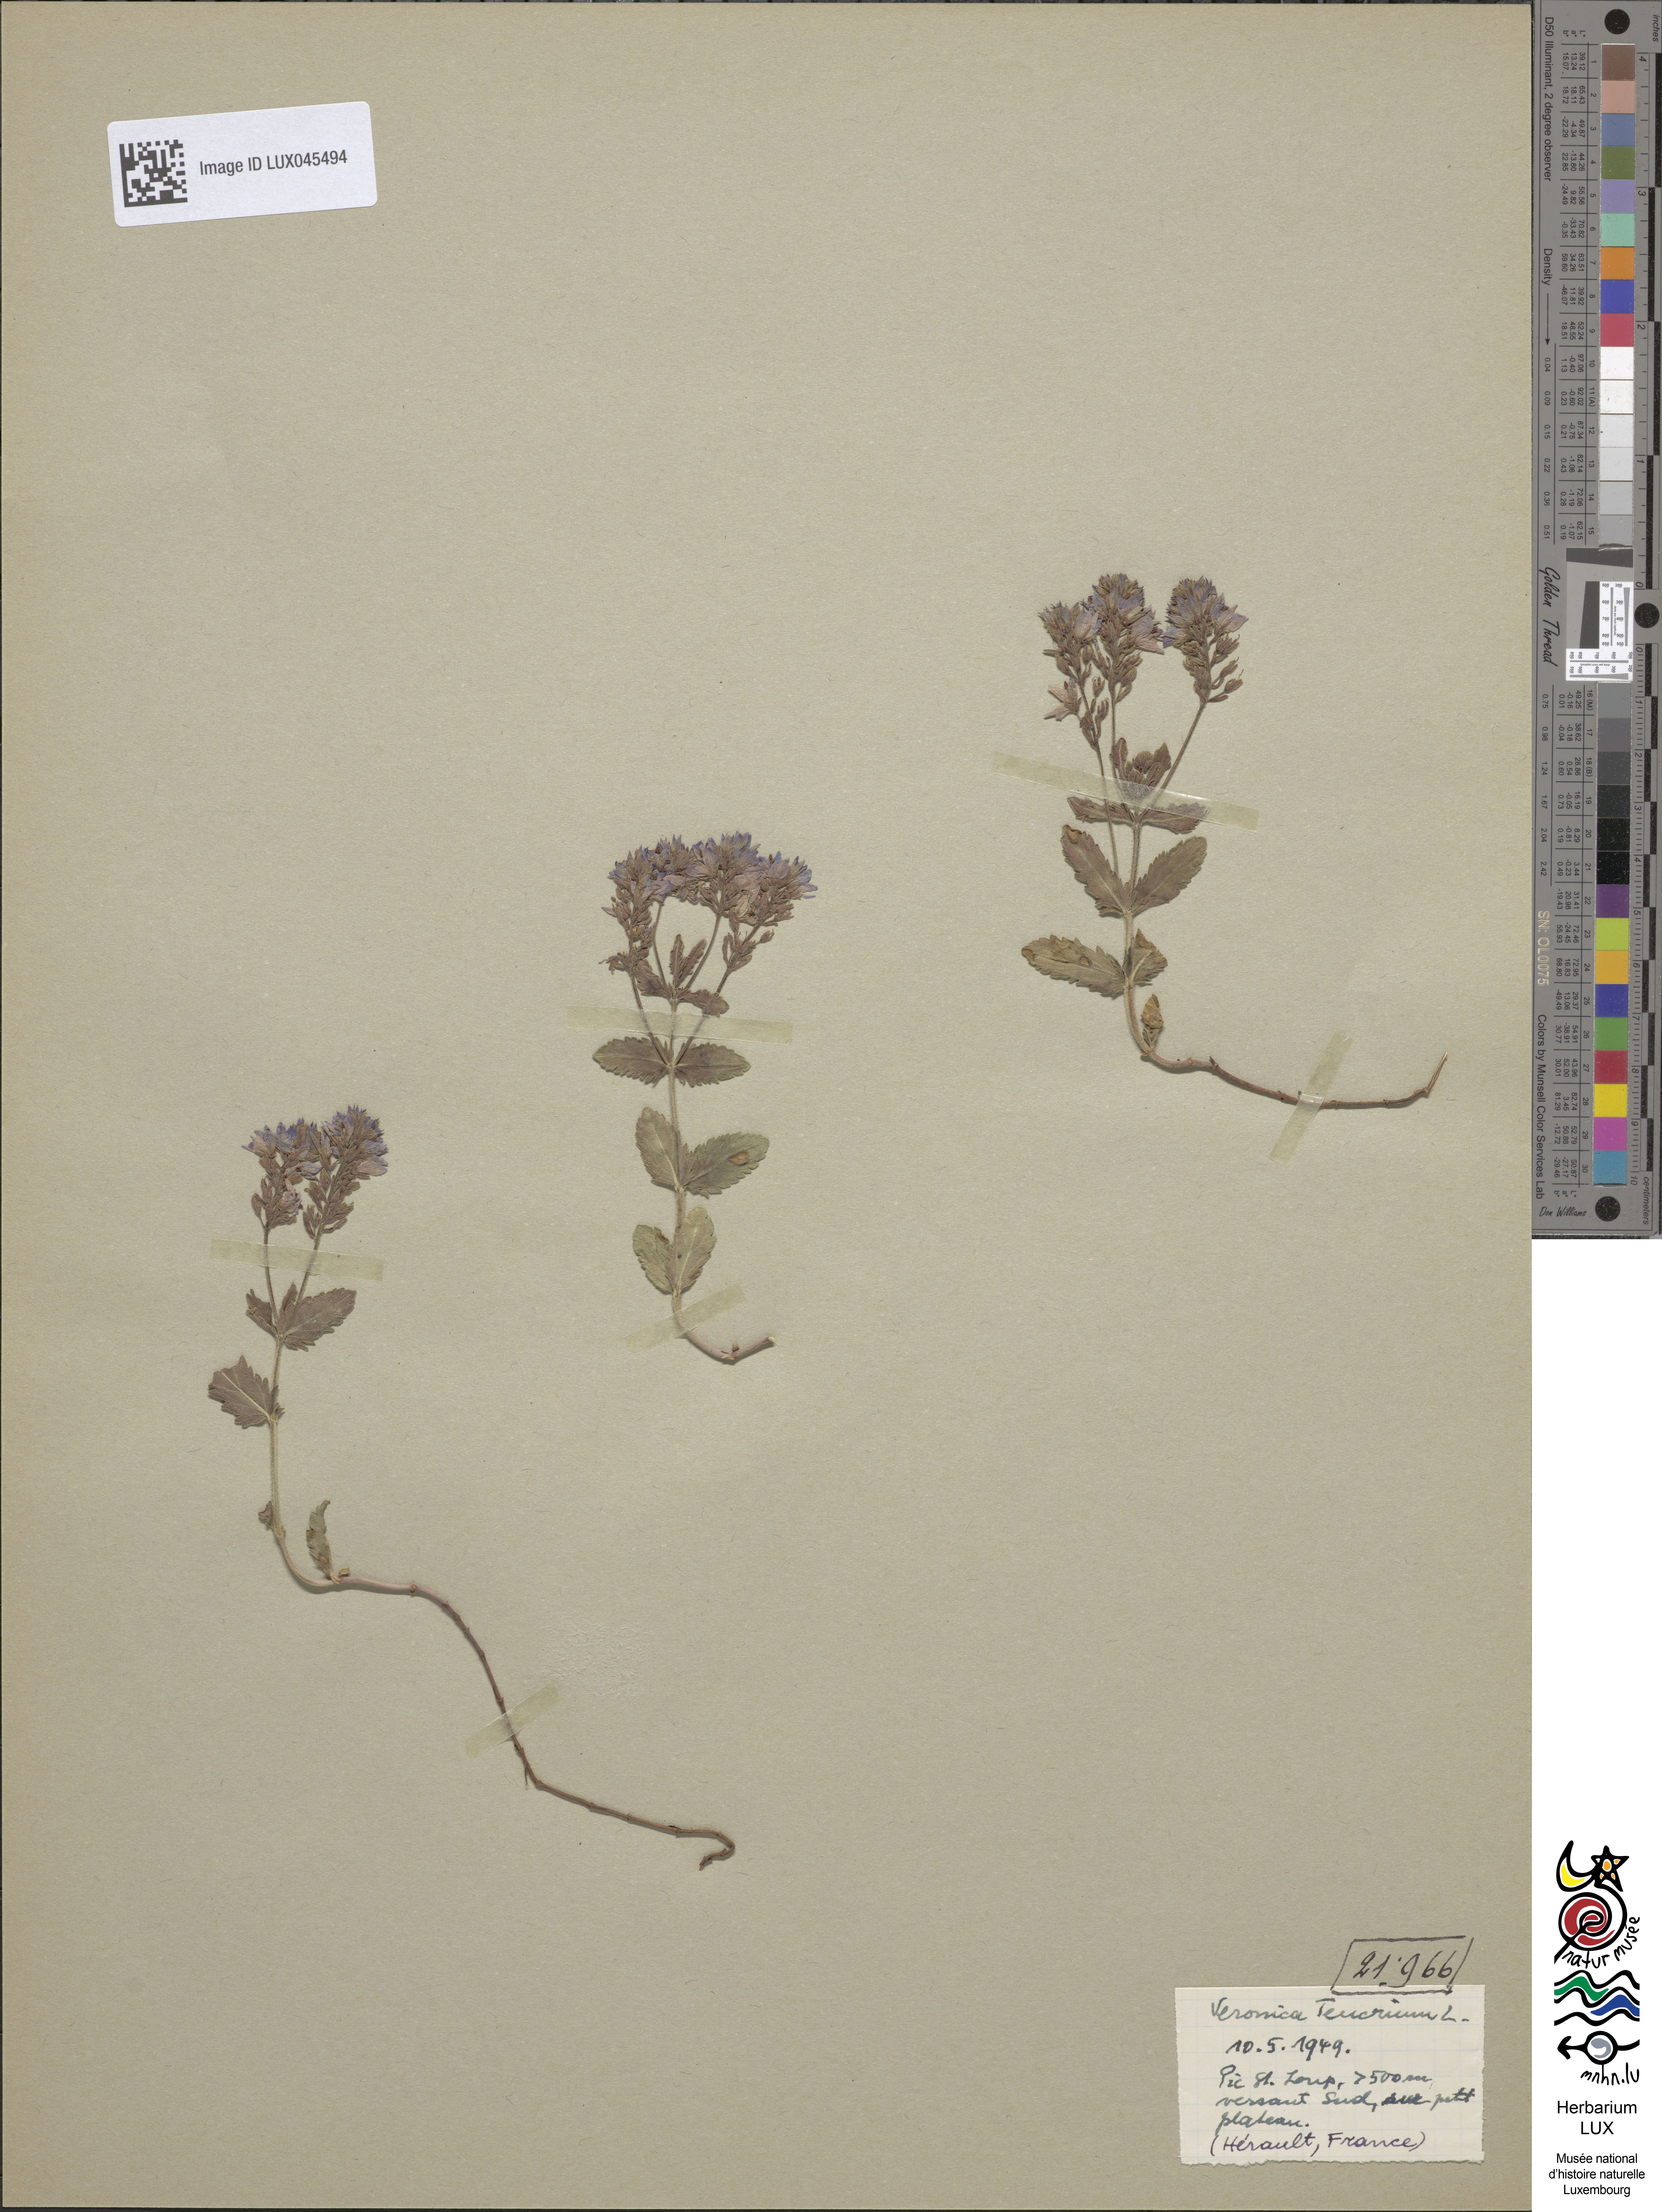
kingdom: Plantae
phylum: Tracheophyta
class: Magnoliopsida
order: Lamiales
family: Plantaginaceae
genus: Veronica
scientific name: Veronica teucrium
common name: Large speedwell
